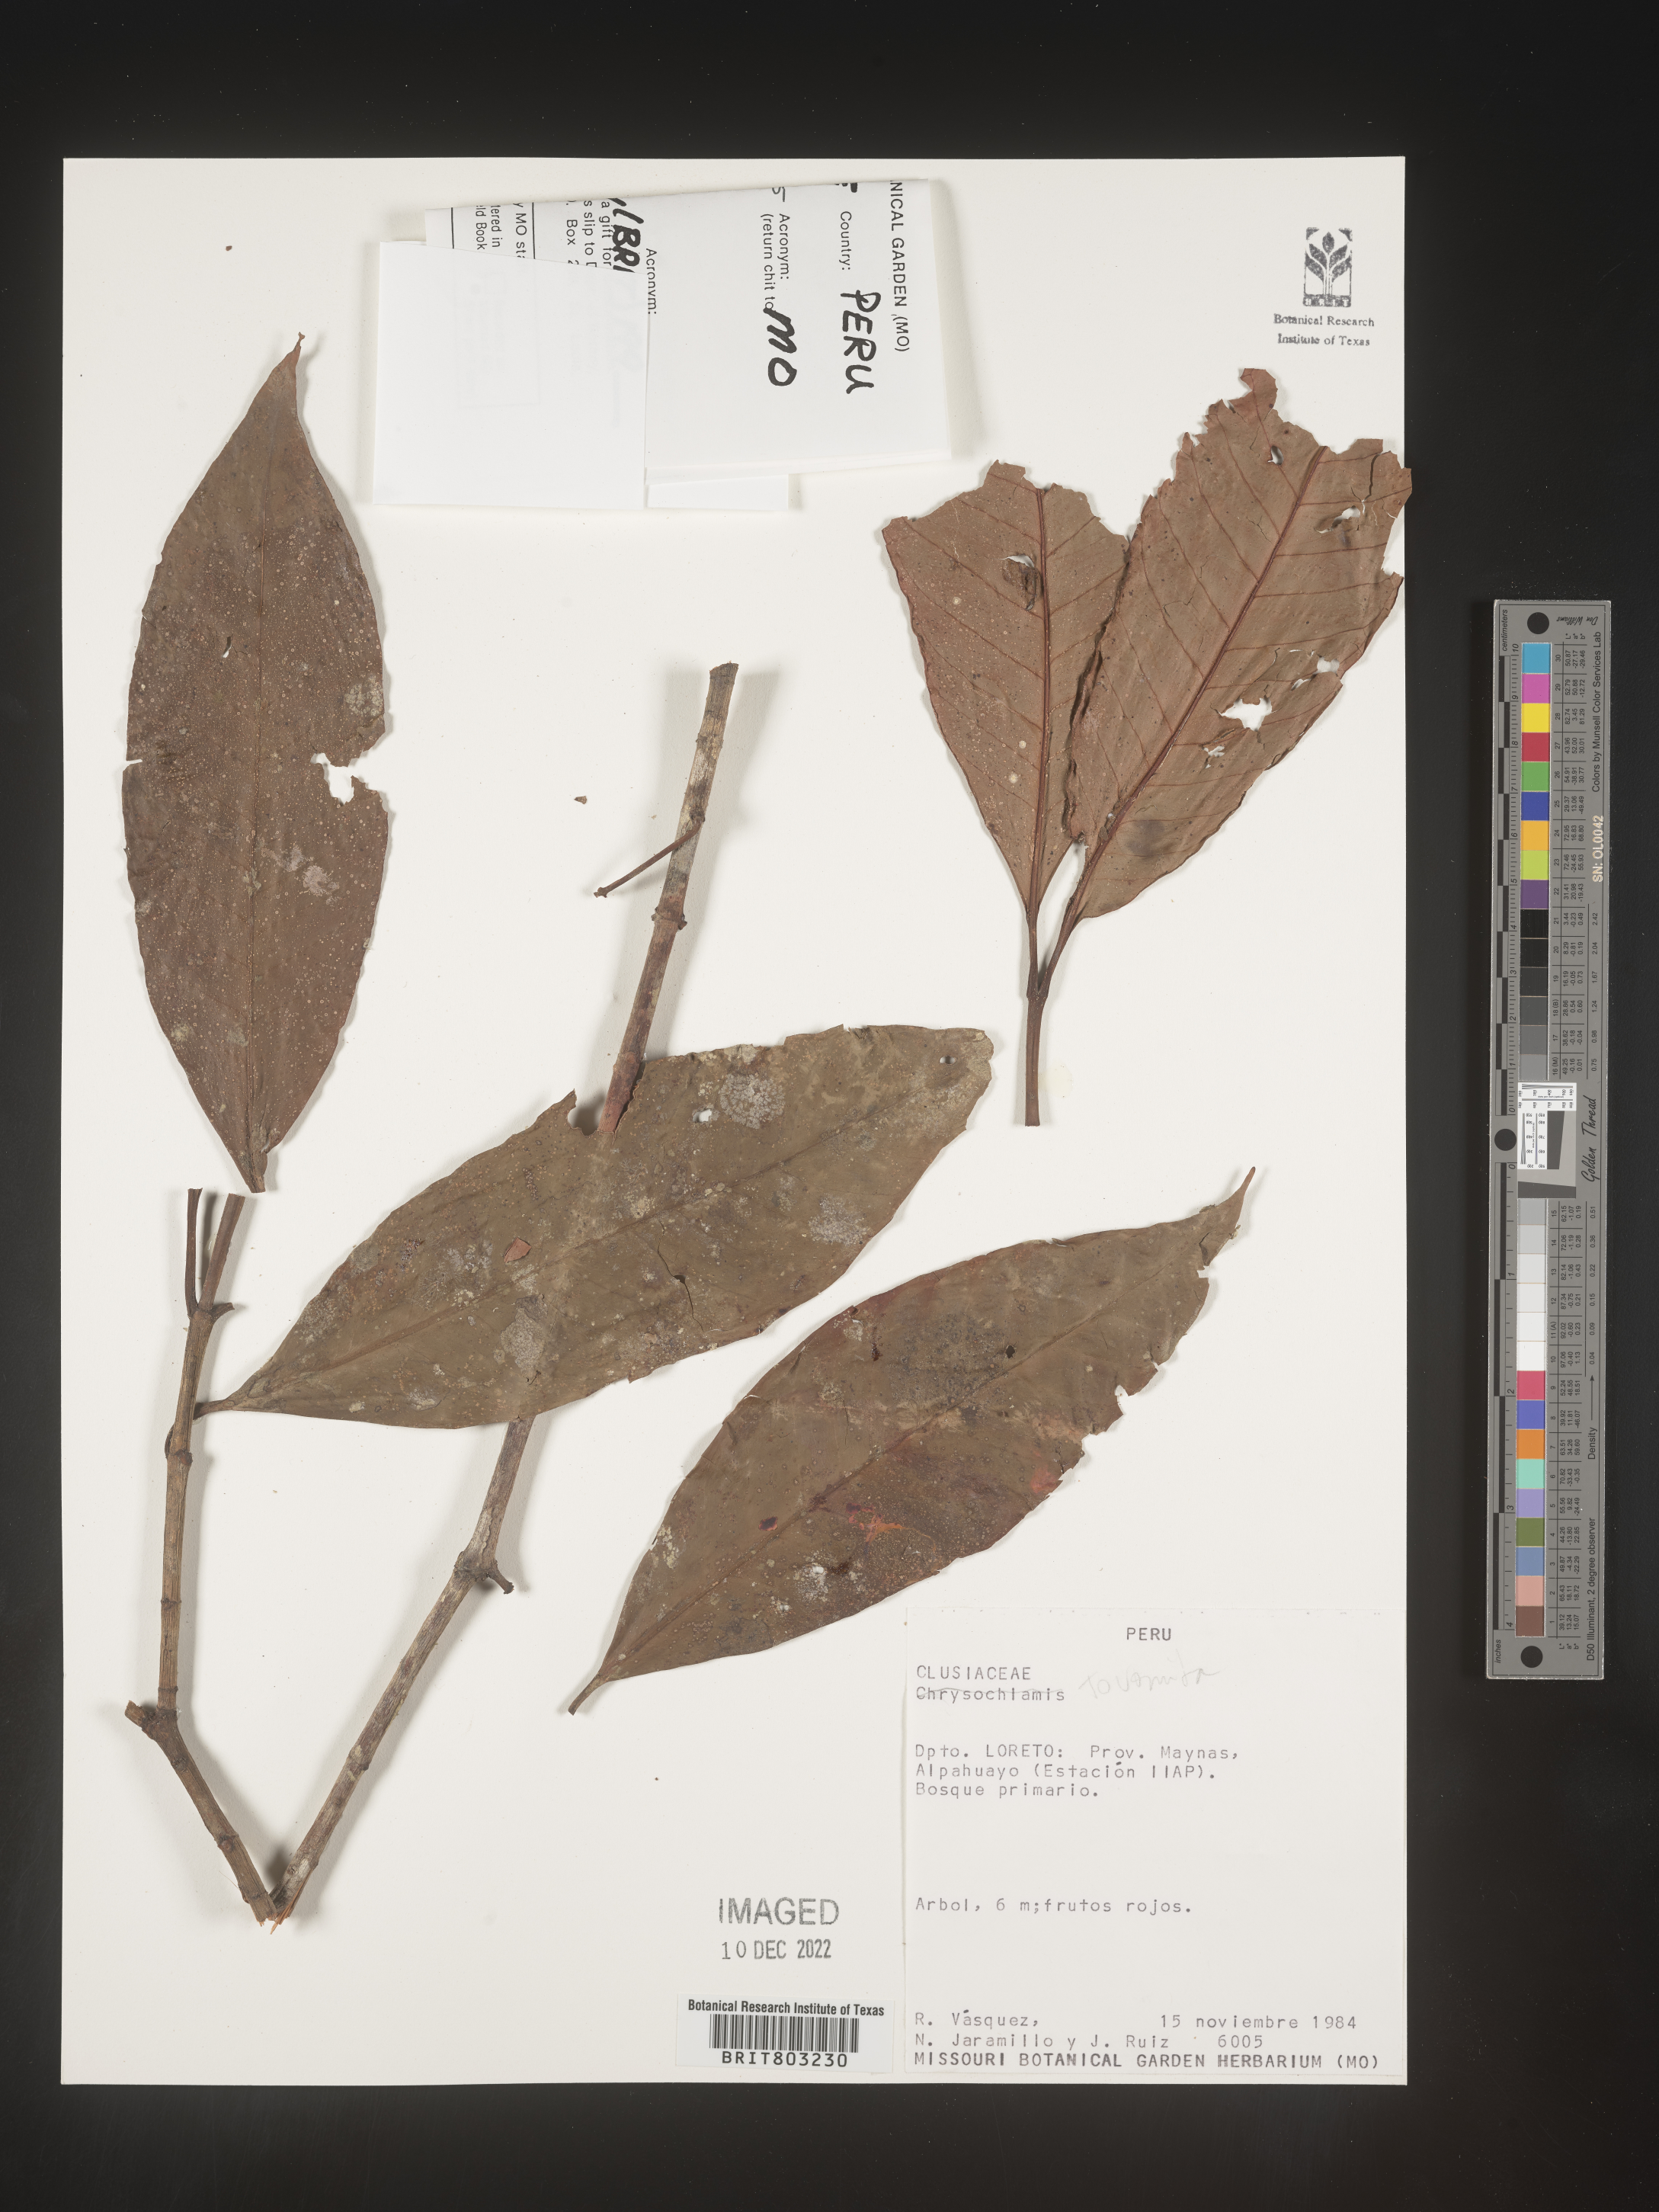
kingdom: Plantae
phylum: Tracheophyta
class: Magnoliopsida
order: Malpighiales
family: Clusiaceae
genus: Tovomita
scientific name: Tovomita
